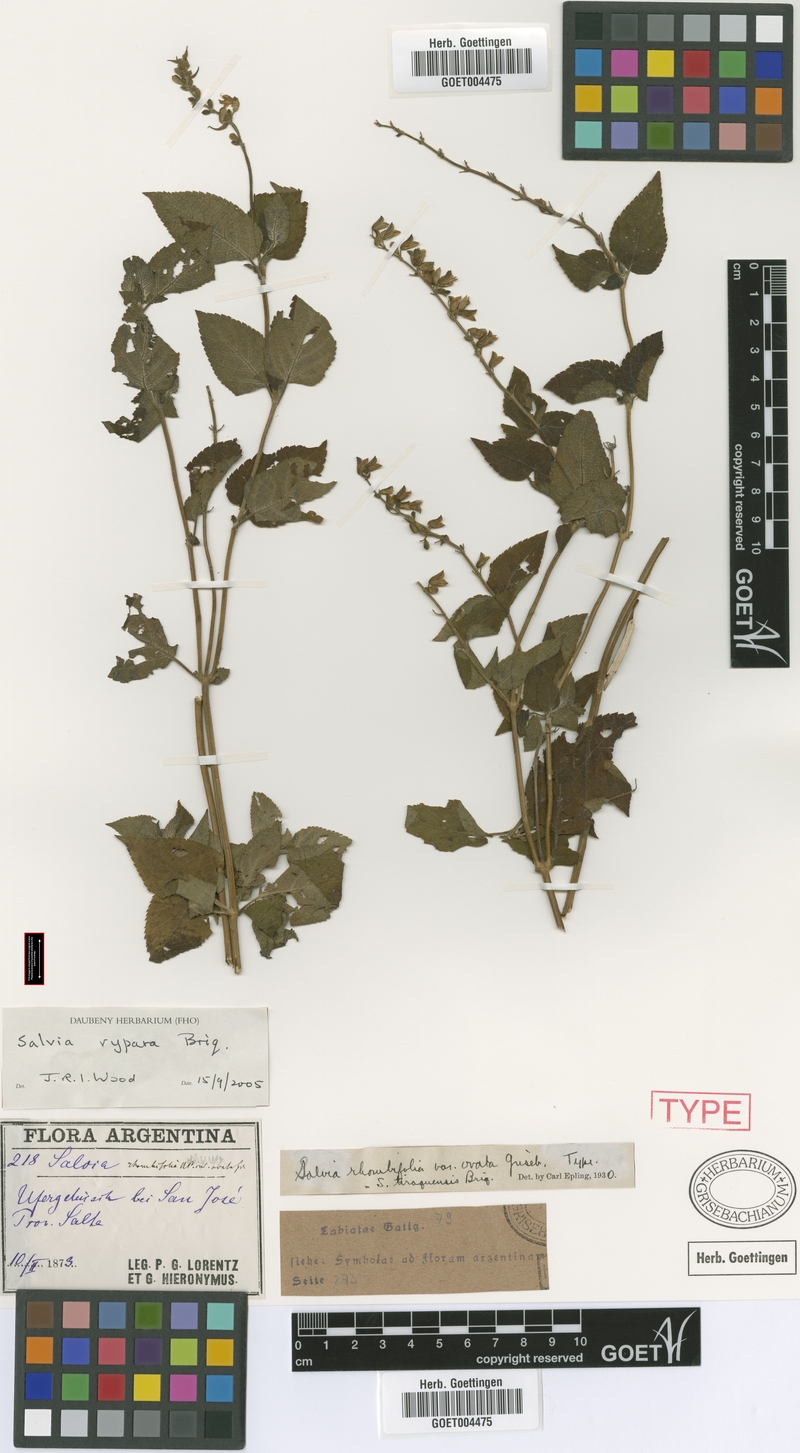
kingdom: Plantae
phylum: Tracheophyta
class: Magnoliopsida
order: Lamiales
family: Lamiaceae
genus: Salvia
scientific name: Salvia rypara
